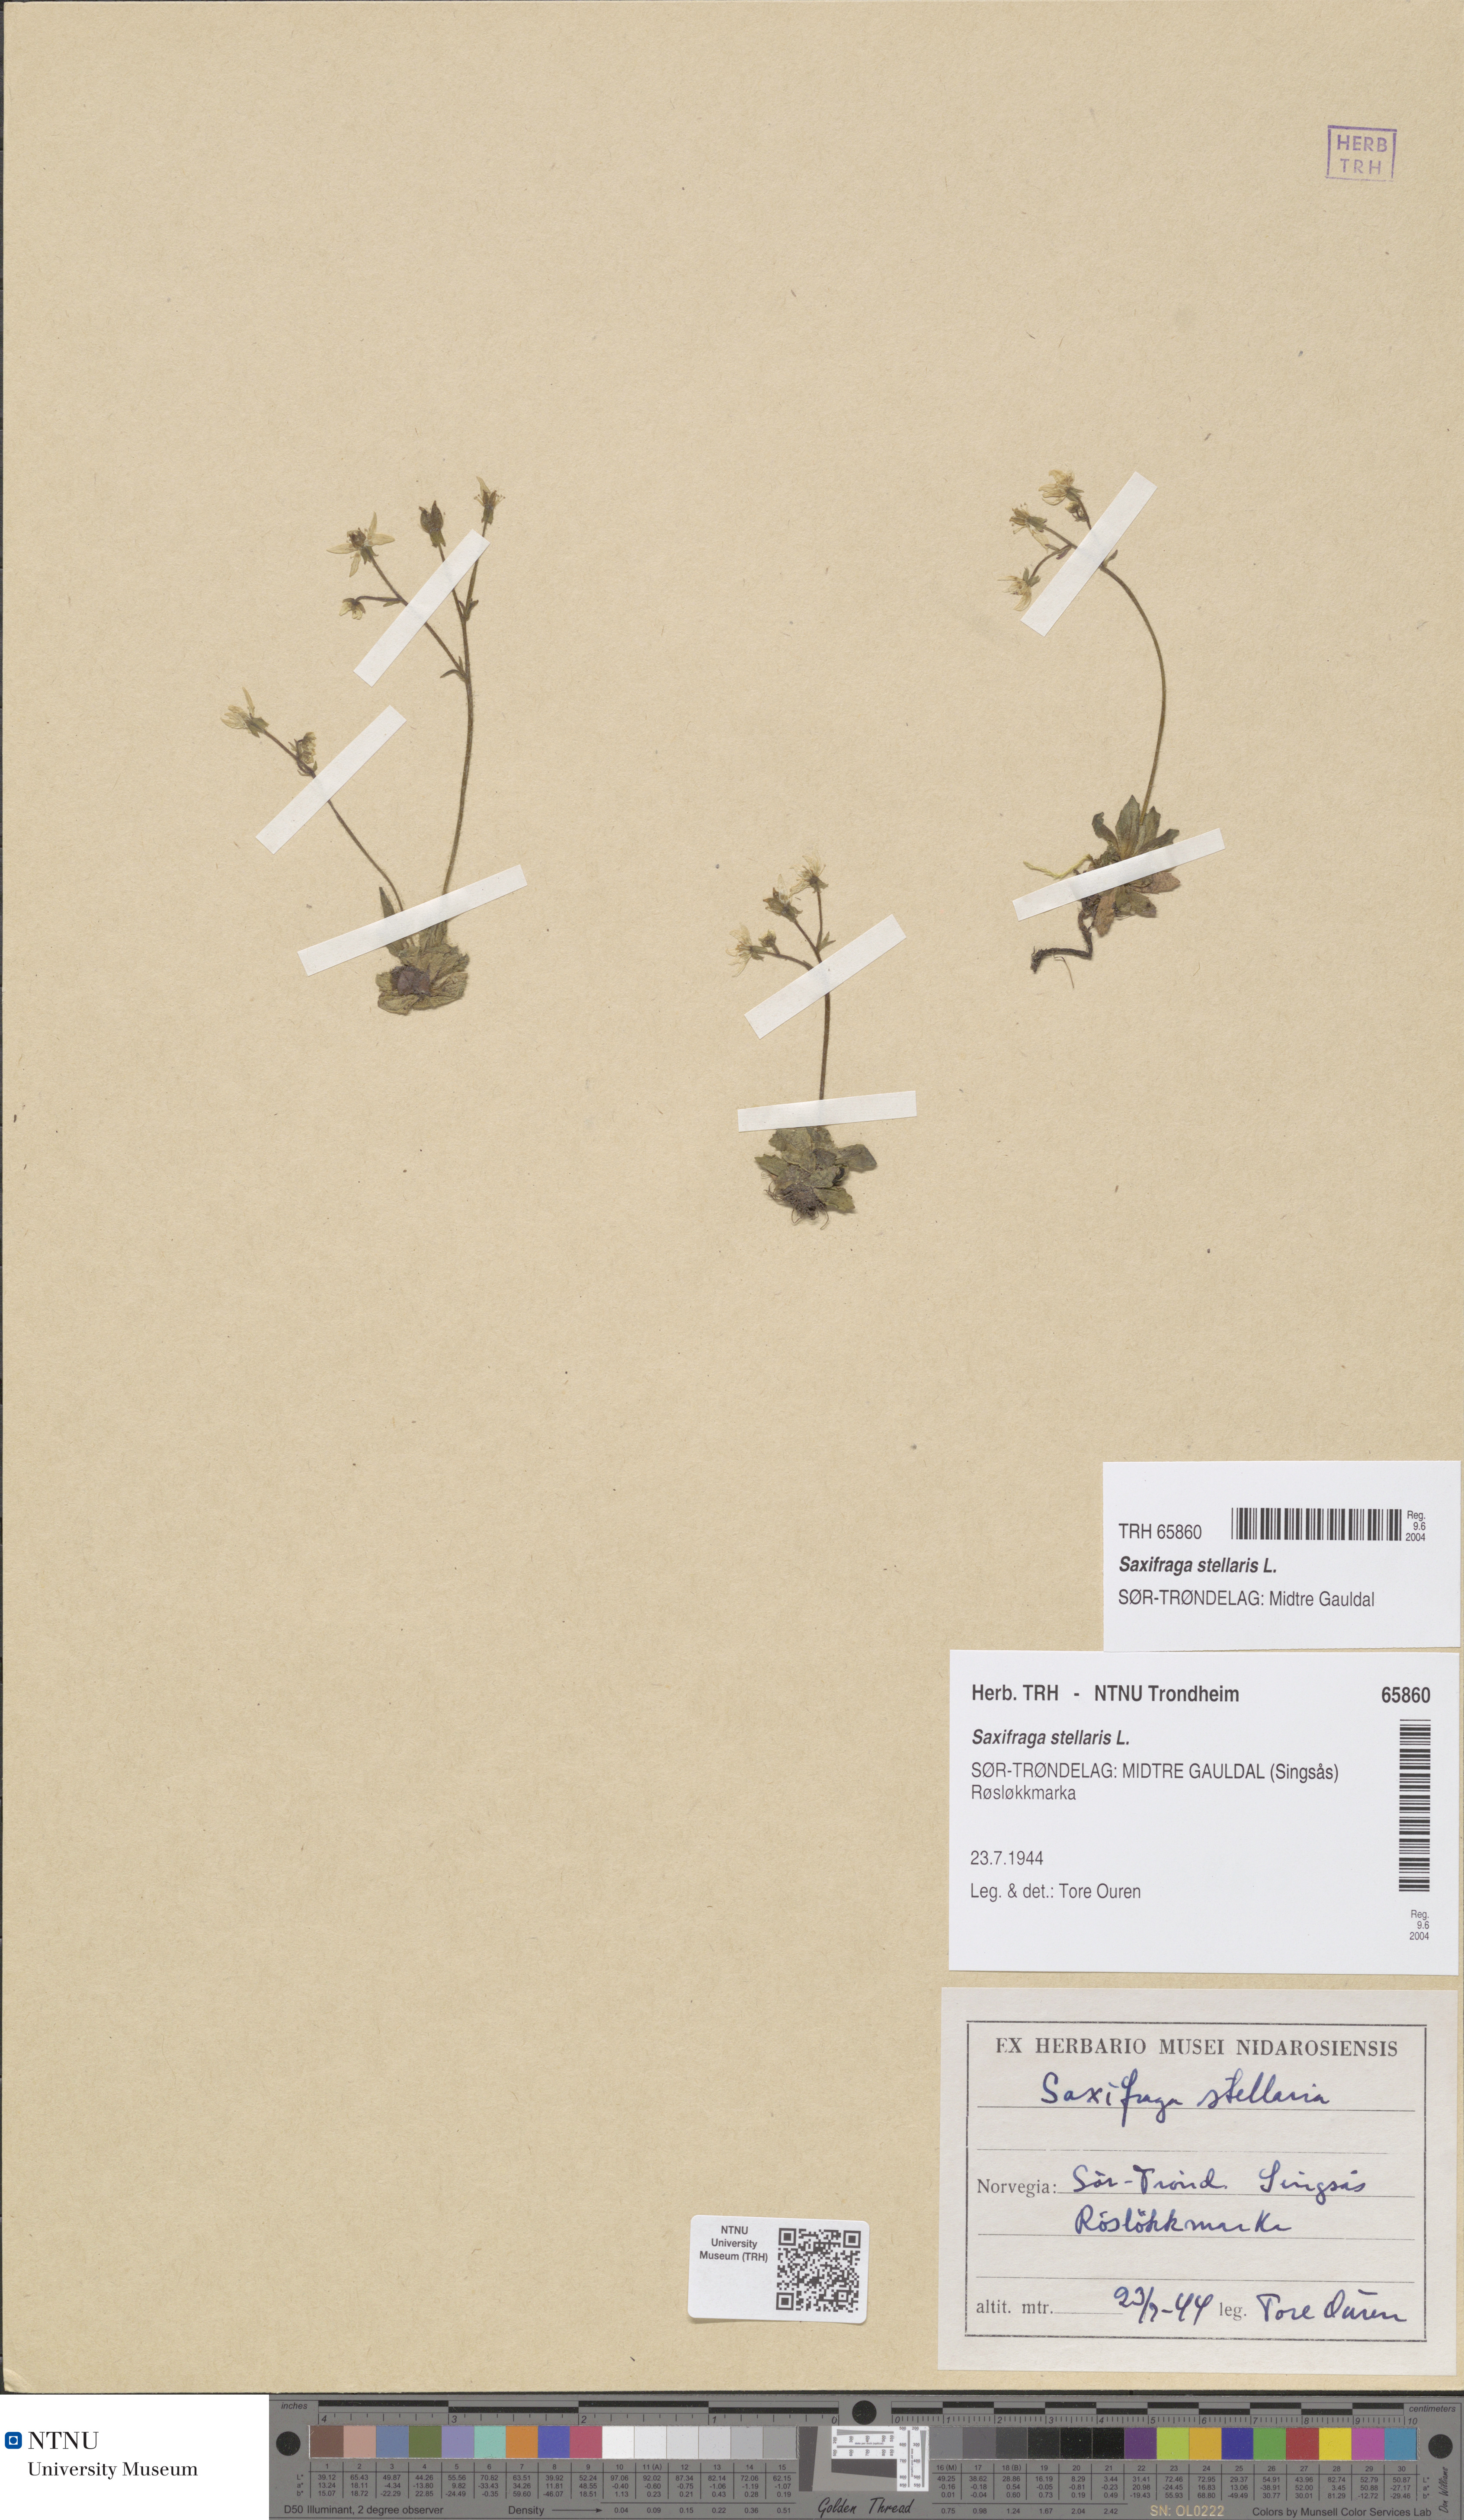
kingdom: Plantae
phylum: Tracheophyta
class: Magnoliopsida
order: Saxifragales
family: Saxifragaceae
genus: Micranthes
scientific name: Micranthes stellaris
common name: Starry saxifrage
